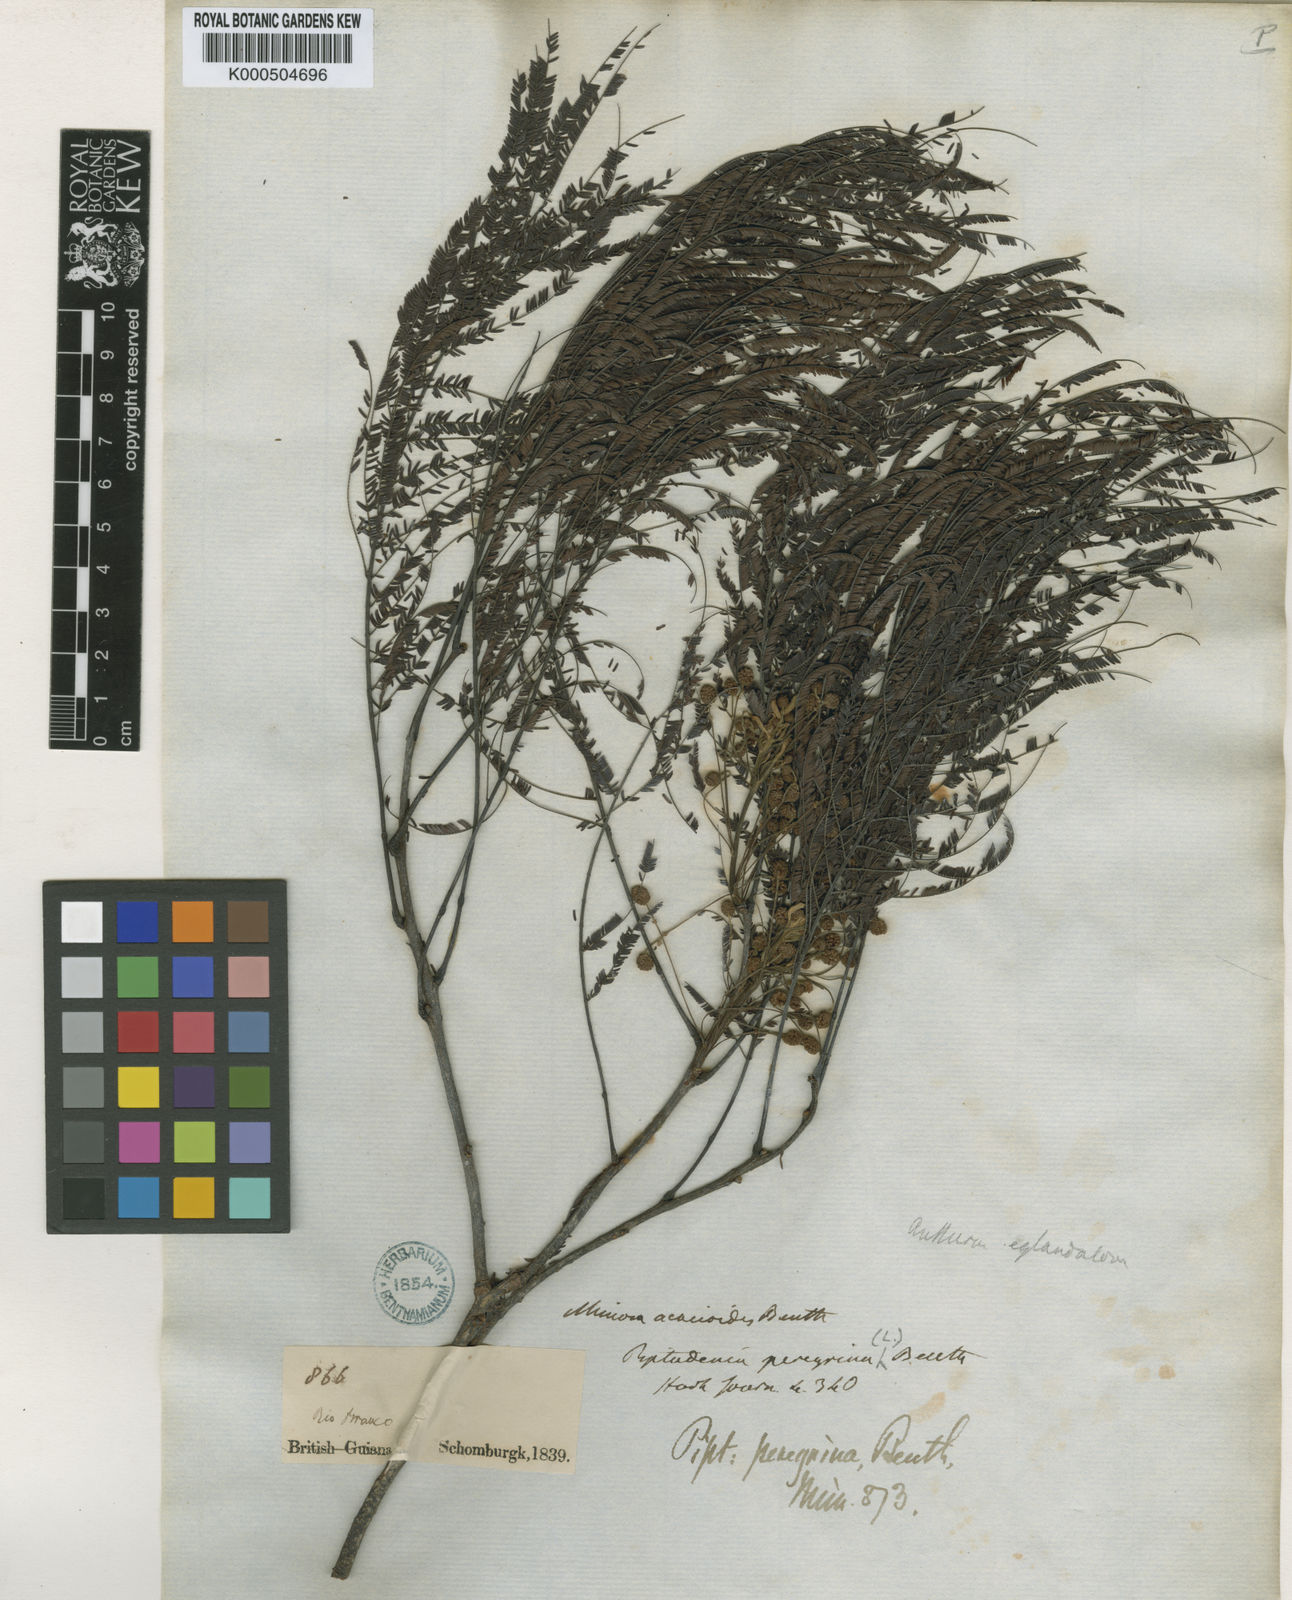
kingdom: Plantae
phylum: Tracheophyta
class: Magnoliopsida
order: Fabales
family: Fabaceae
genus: Anadenanthera
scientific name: Anadenanthera peregrina
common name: Cohoba
